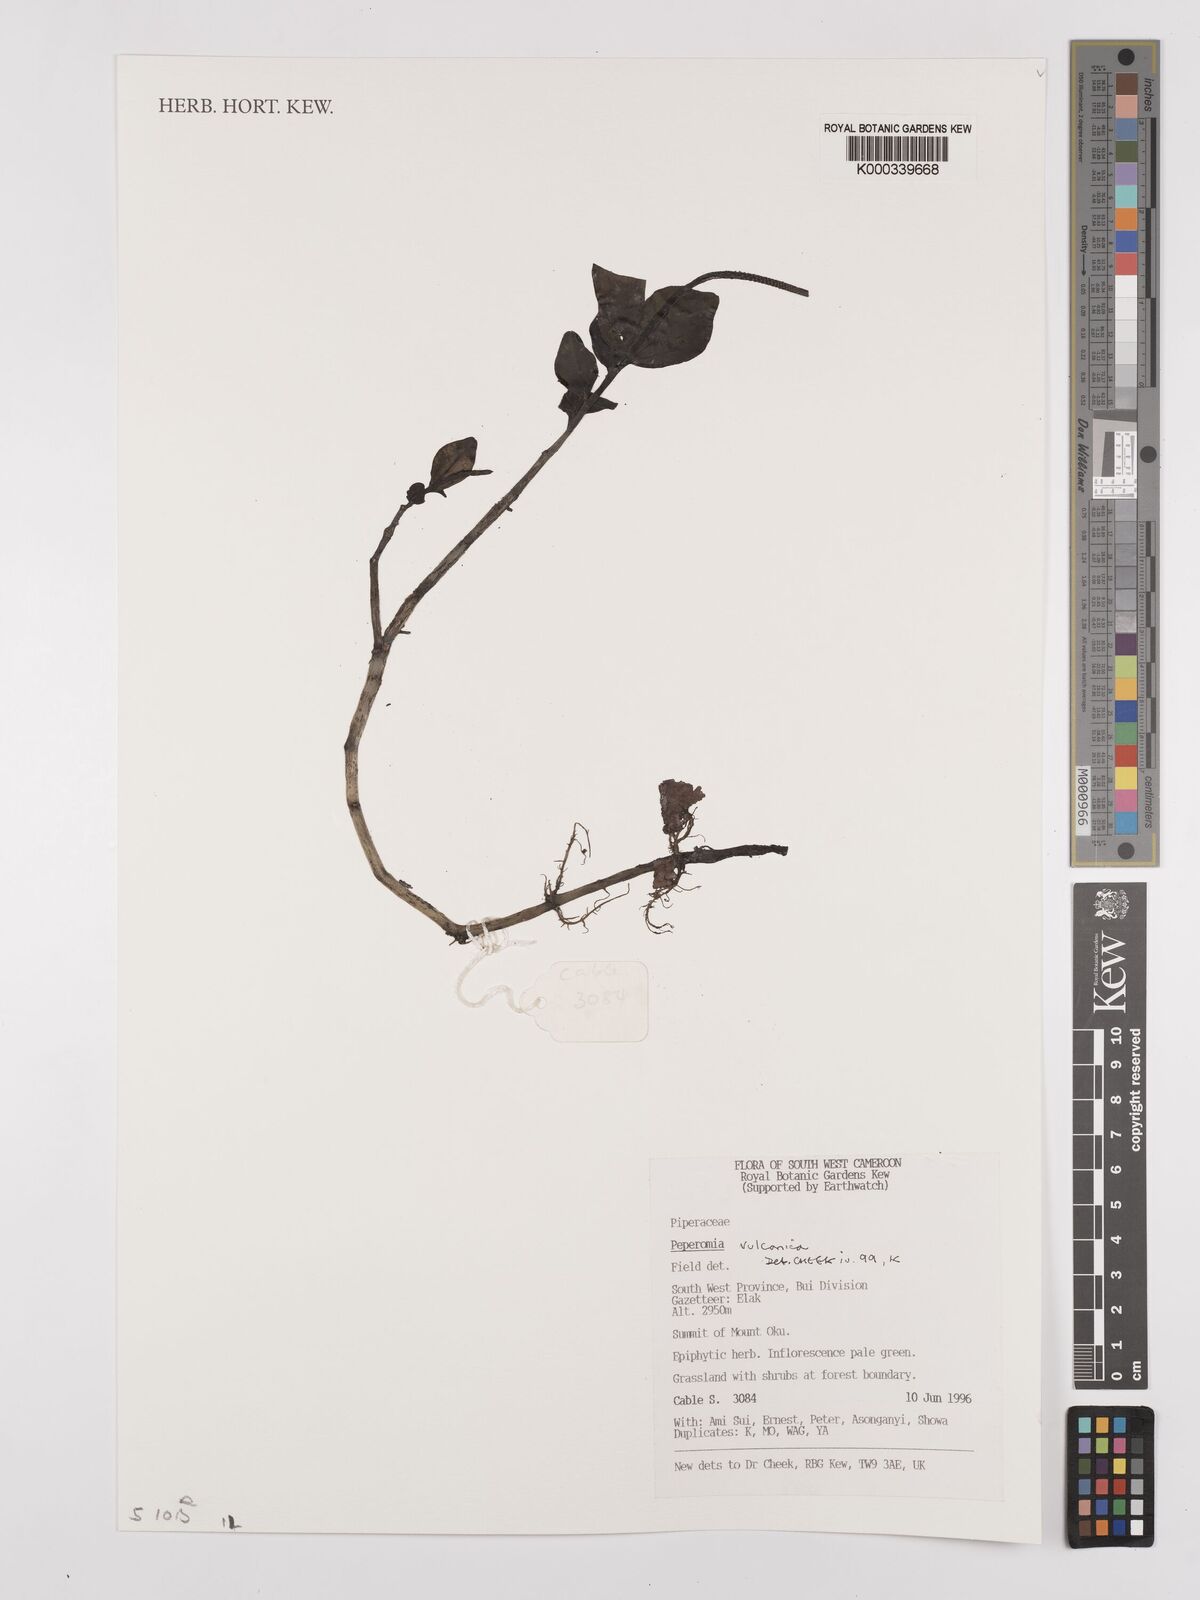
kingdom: Plantae
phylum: Tracheophyta
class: Magnoliopsida
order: Piperales
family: Piperaceae
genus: Peperomia
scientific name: Peperomia vulcanica
